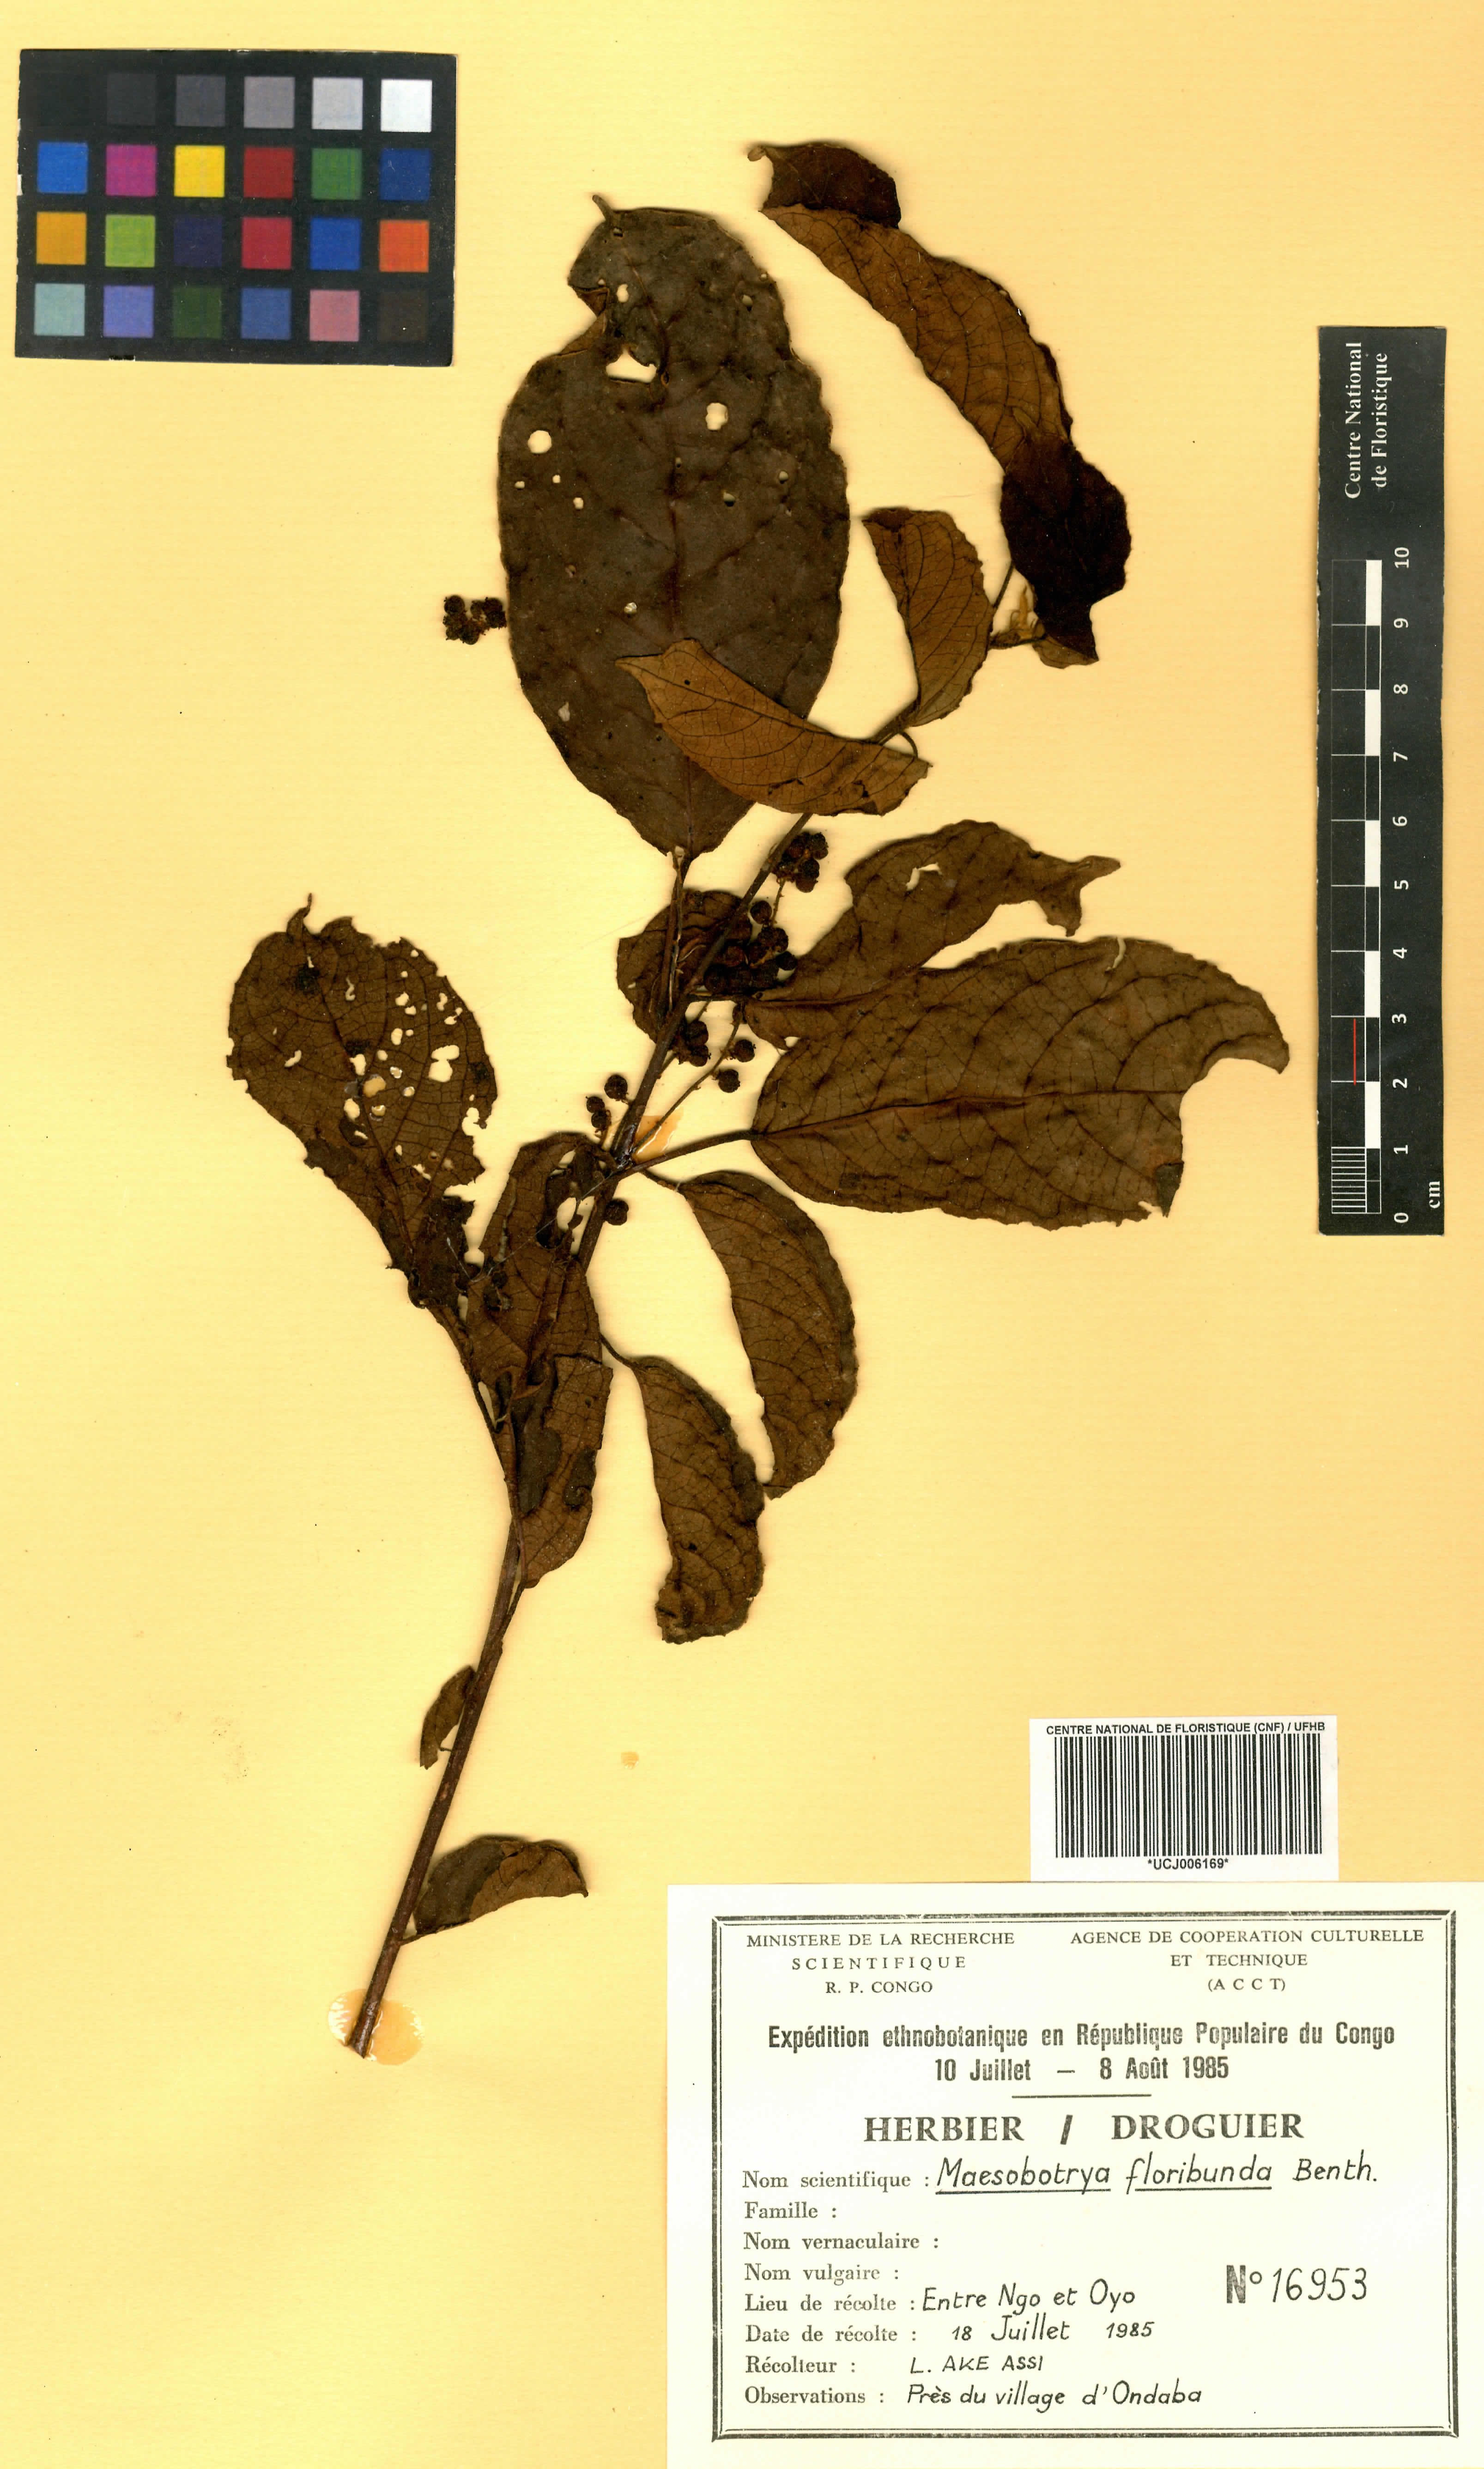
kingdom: Plantae
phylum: Tracheophyta
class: Magnoliopsida
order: Malpighiales
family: Phyllanthaceae
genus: Maesobotrya
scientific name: Maesobotrya floribunda
